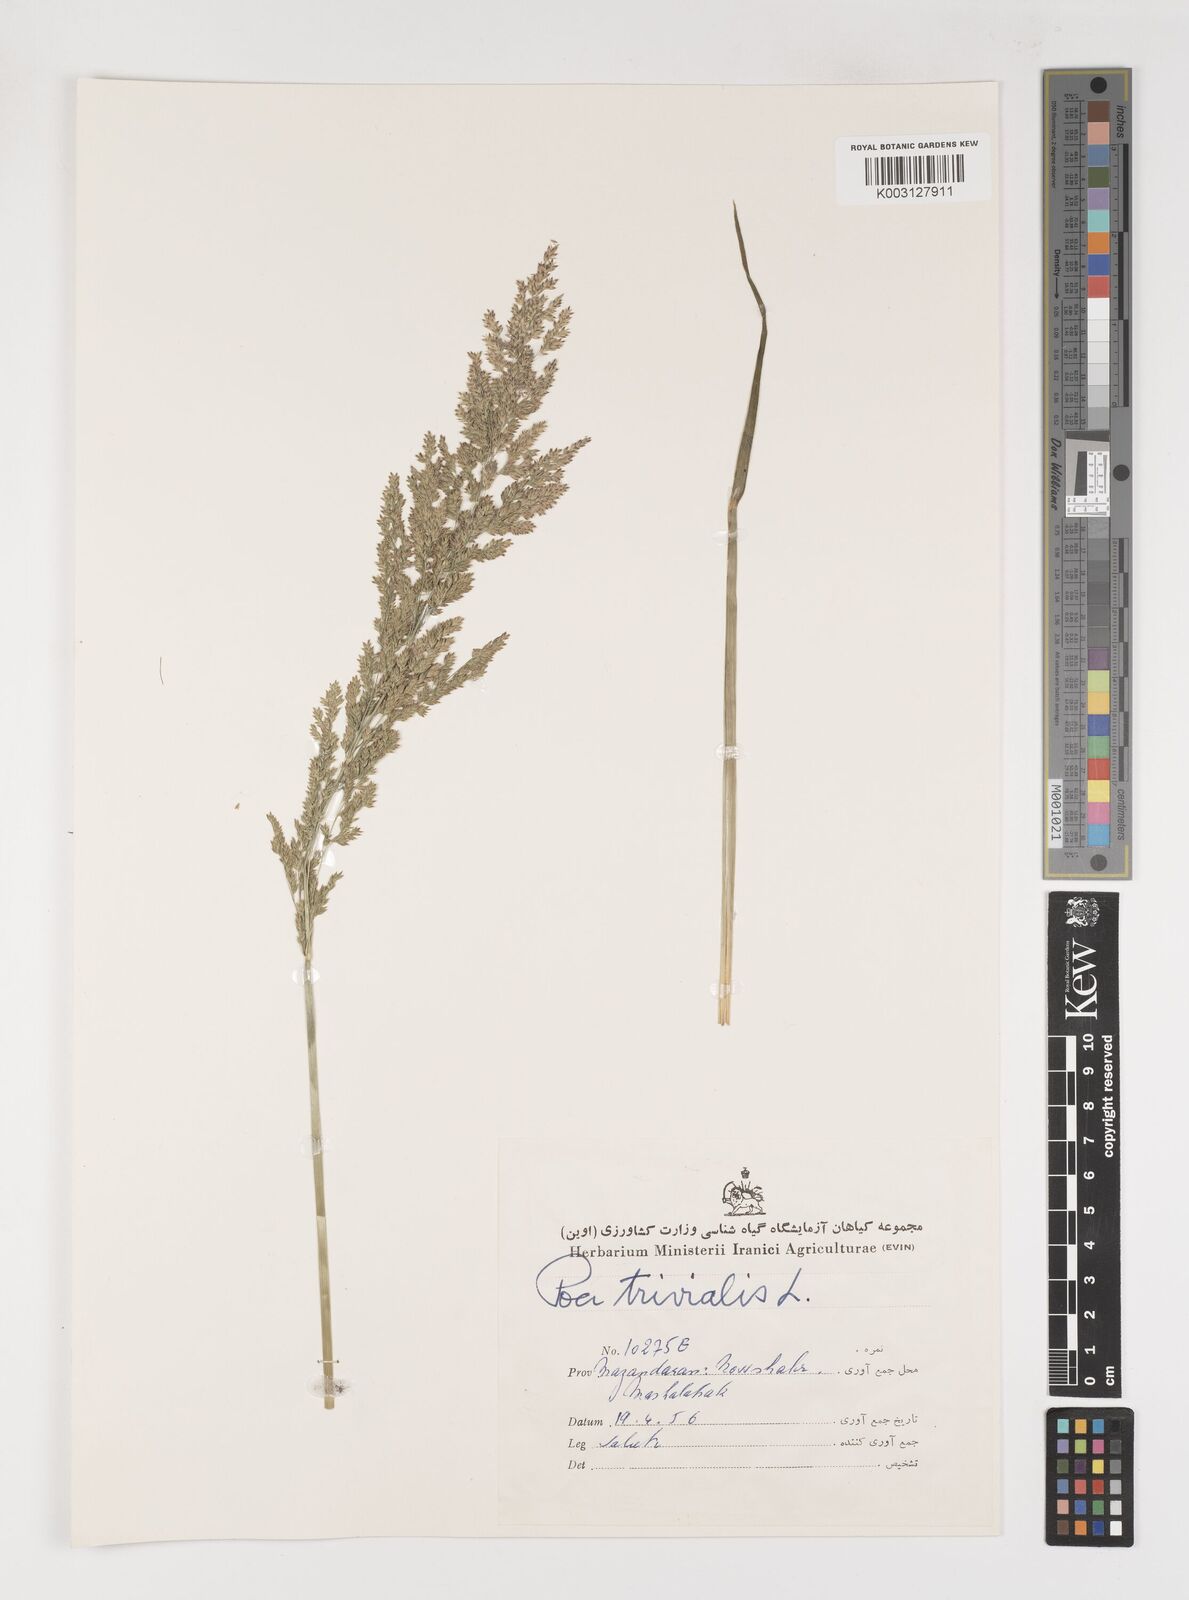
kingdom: Plantae
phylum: Tracheophyta
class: Liliopsida
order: Poales
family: Poaceae
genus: Poa
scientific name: Poa trivialis
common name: Rough bluegrass
